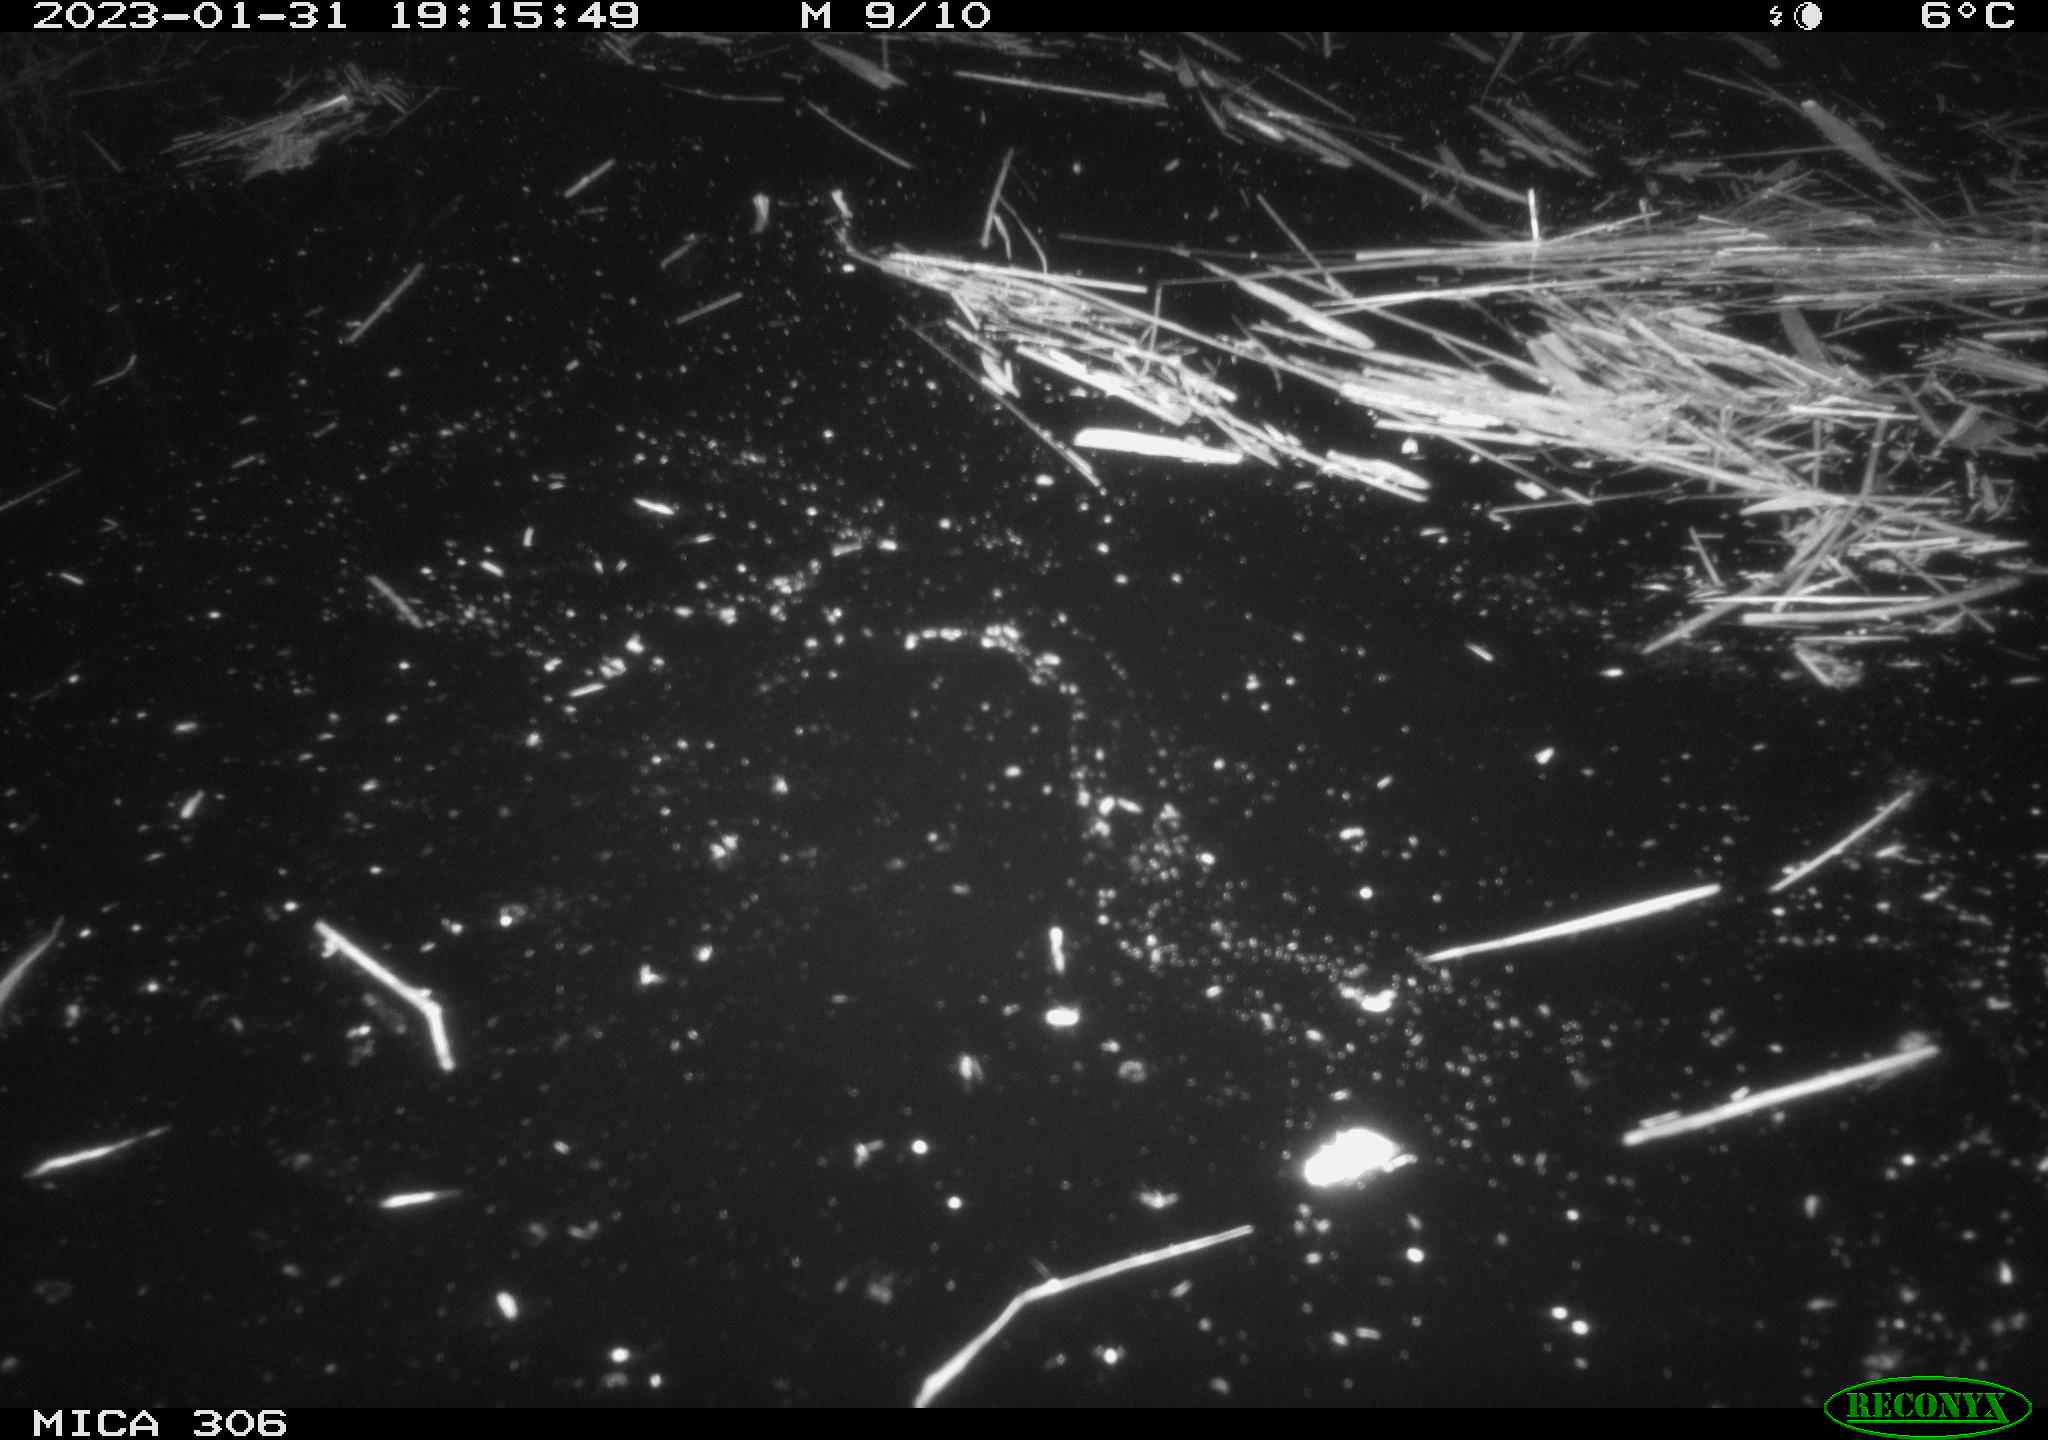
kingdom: Animalia
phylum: Chordata
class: Mammalia
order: Rodentia
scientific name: Rodentia
